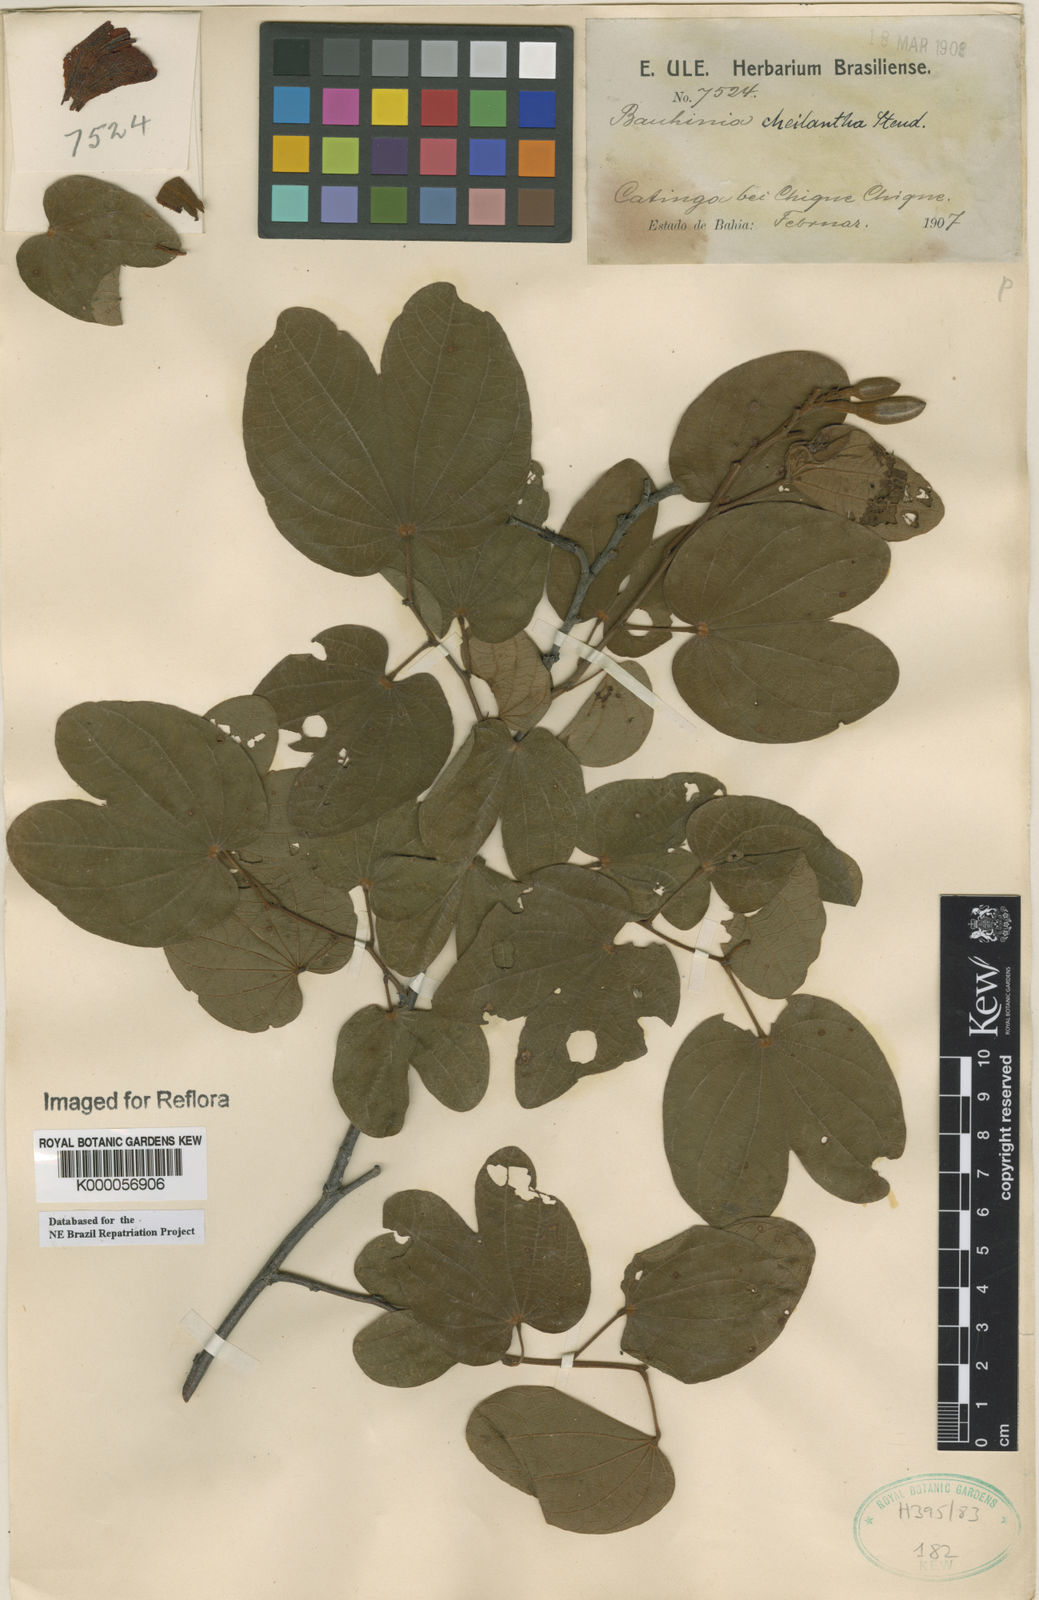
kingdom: Plantae
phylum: Tracheophyta
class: Magnoliopsida
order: Fabales
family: Fabaceae
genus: Bauhinia
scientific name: Bauhinia cheilantha
